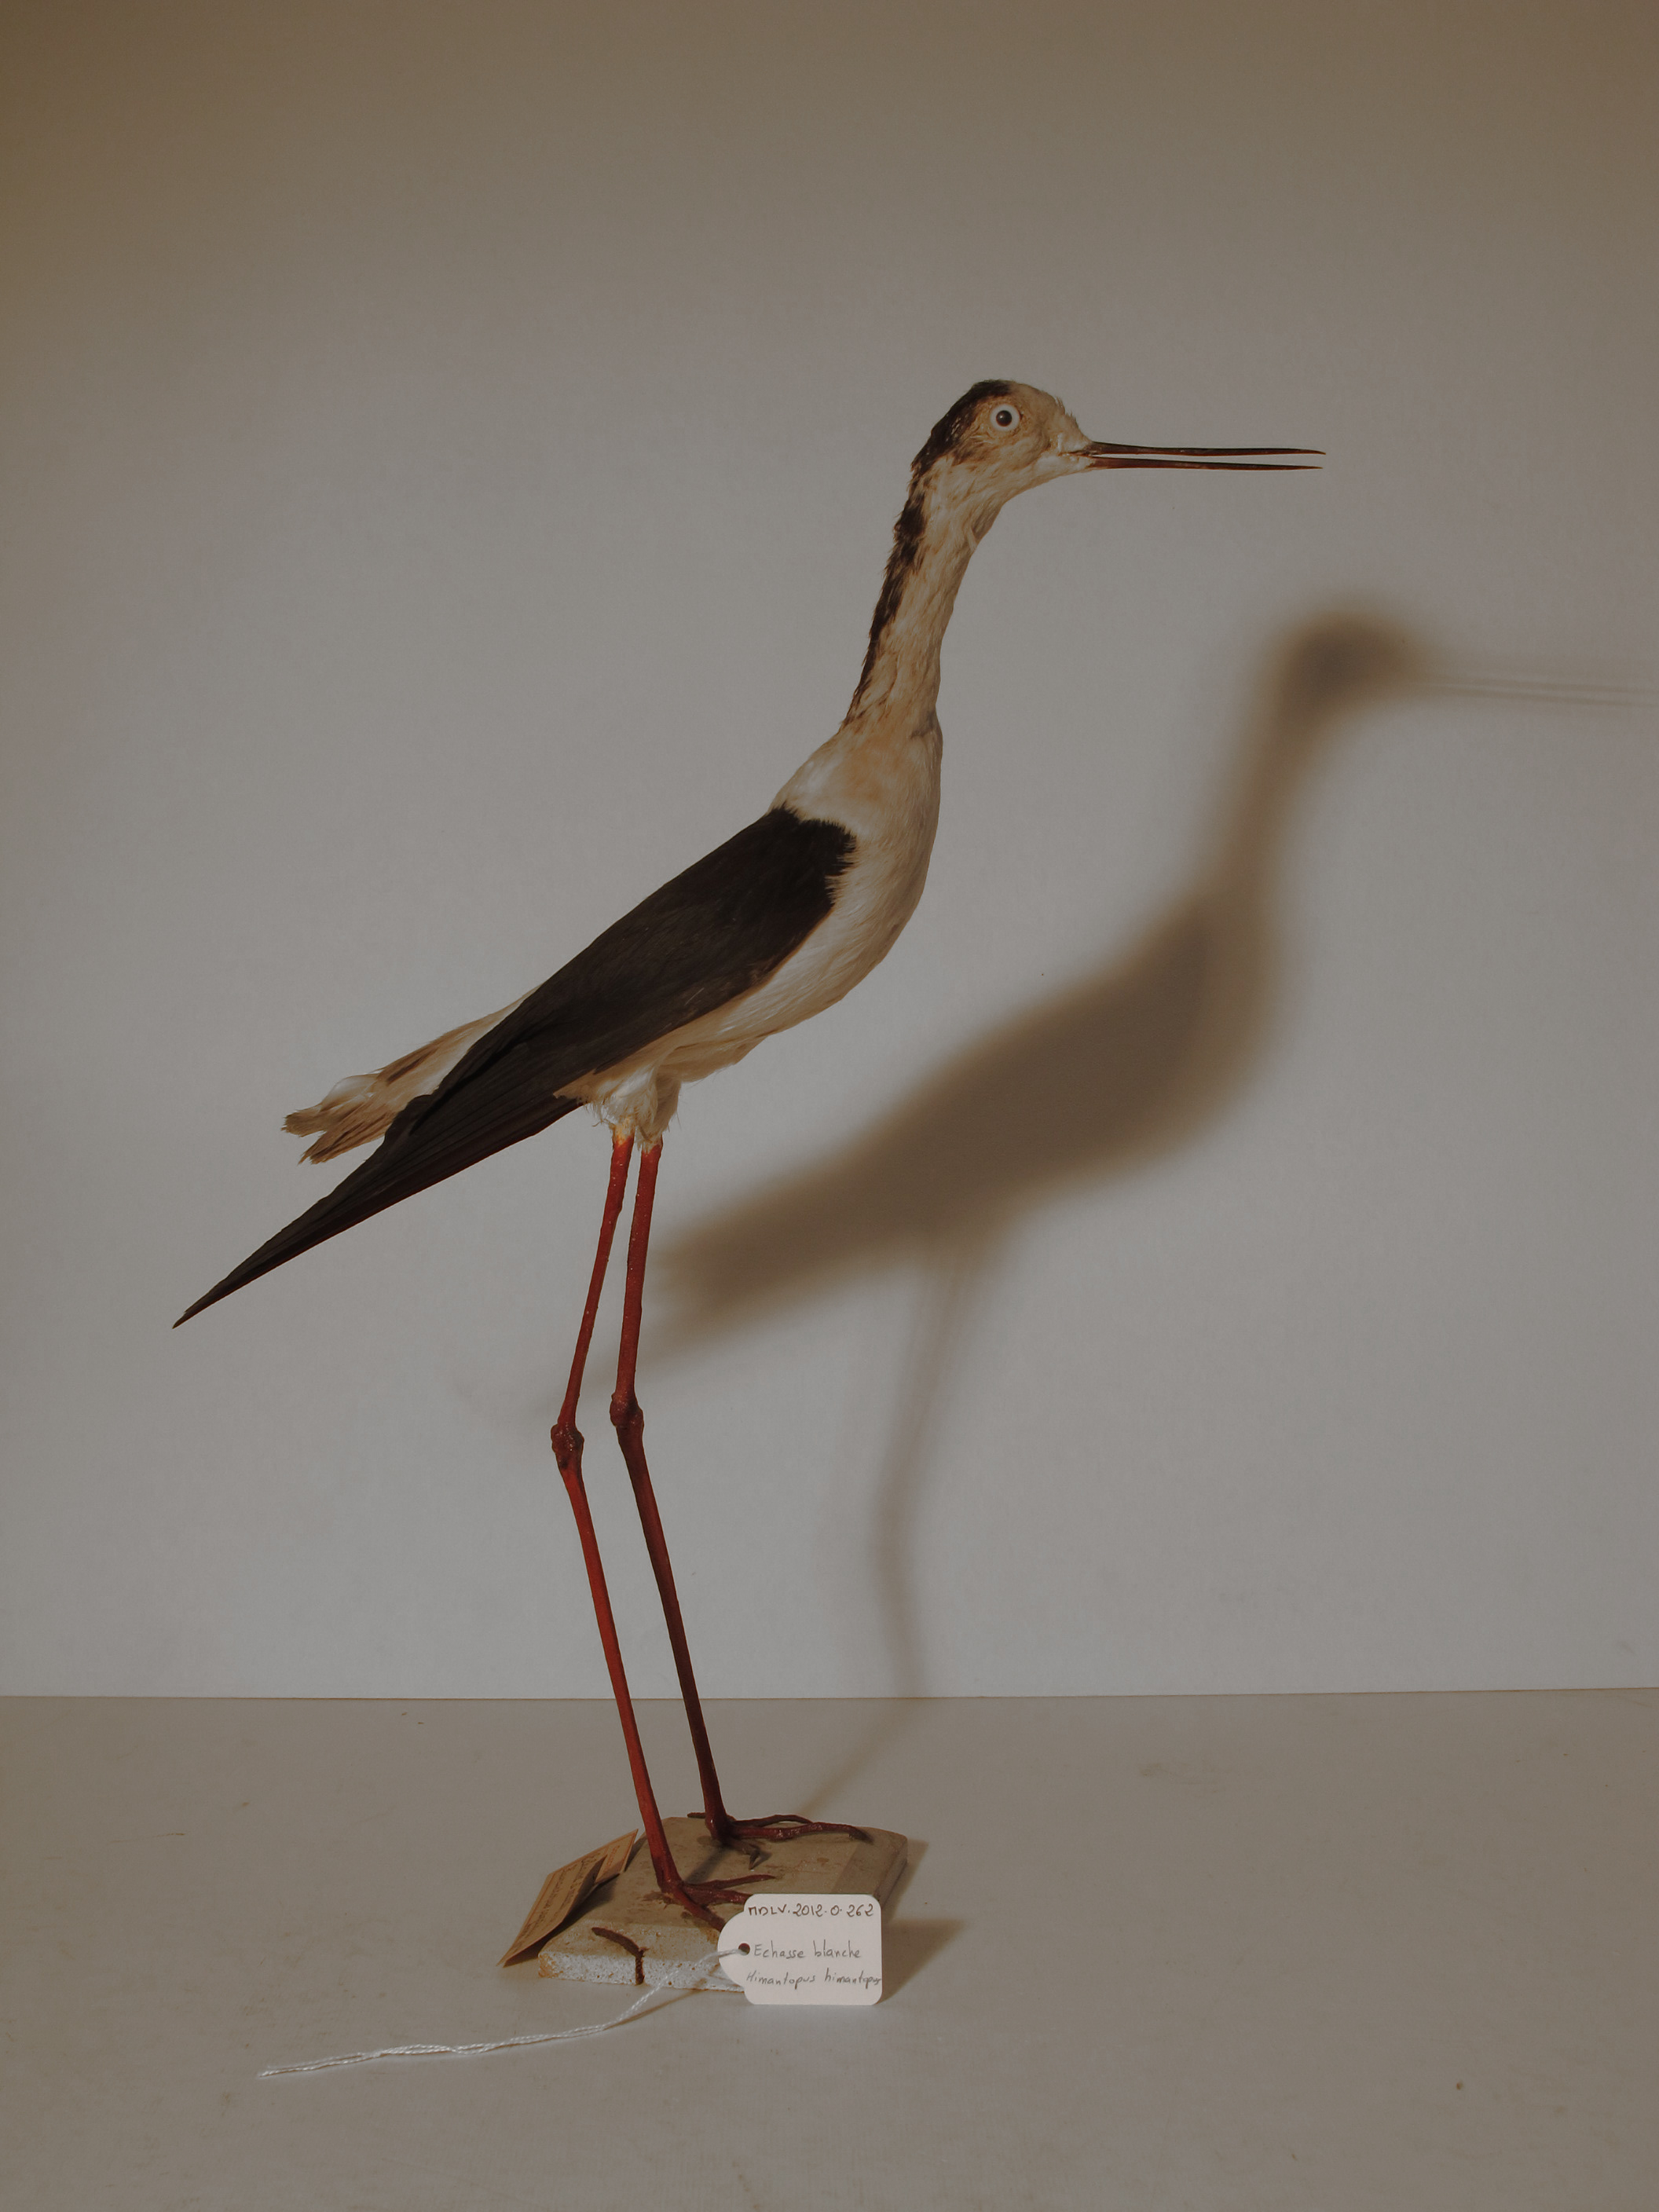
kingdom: Animalia
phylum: Chordata
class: Aves
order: Charadriiformes
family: Recurvirostridae
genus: Himantopus
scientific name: Himantopus himantopus
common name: Black-winged Stilt
